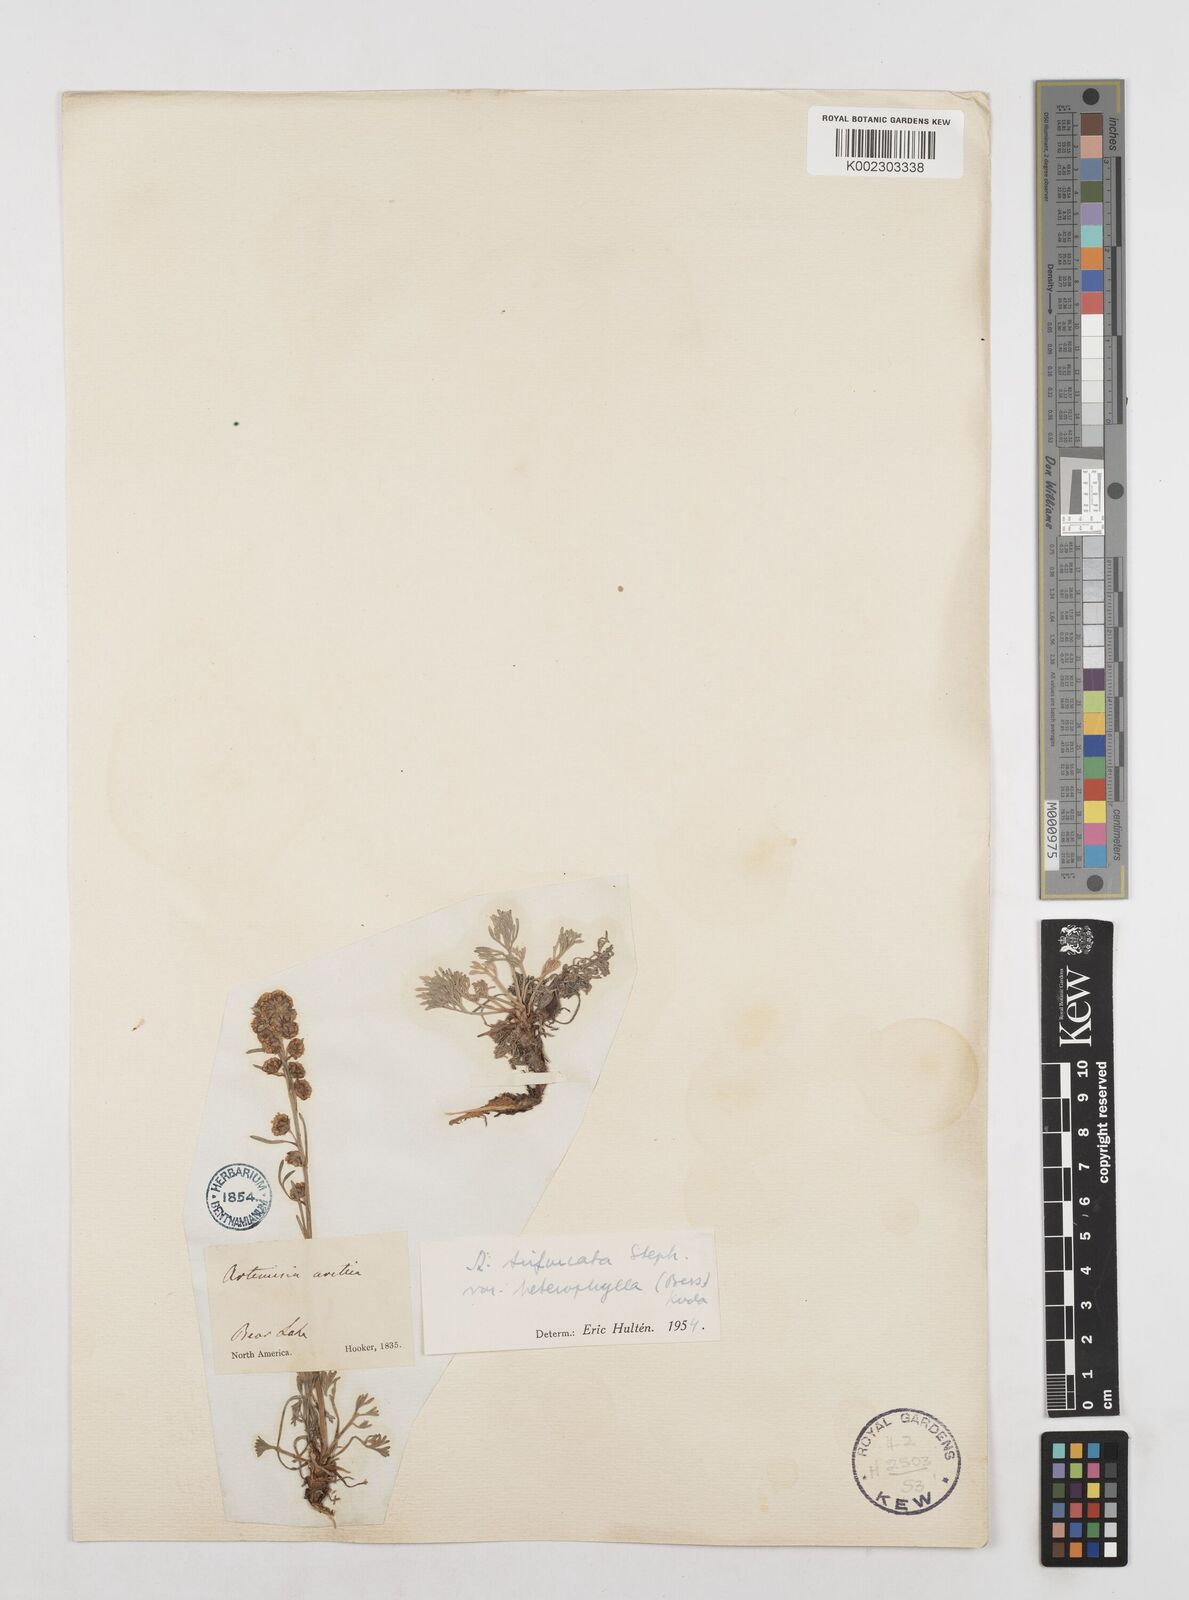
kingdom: Plantae
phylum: Tracheophyta
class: Magnoliopsida
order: Asterales
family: Asteraceae
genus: Artemisia
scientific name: Artemisia furcata
